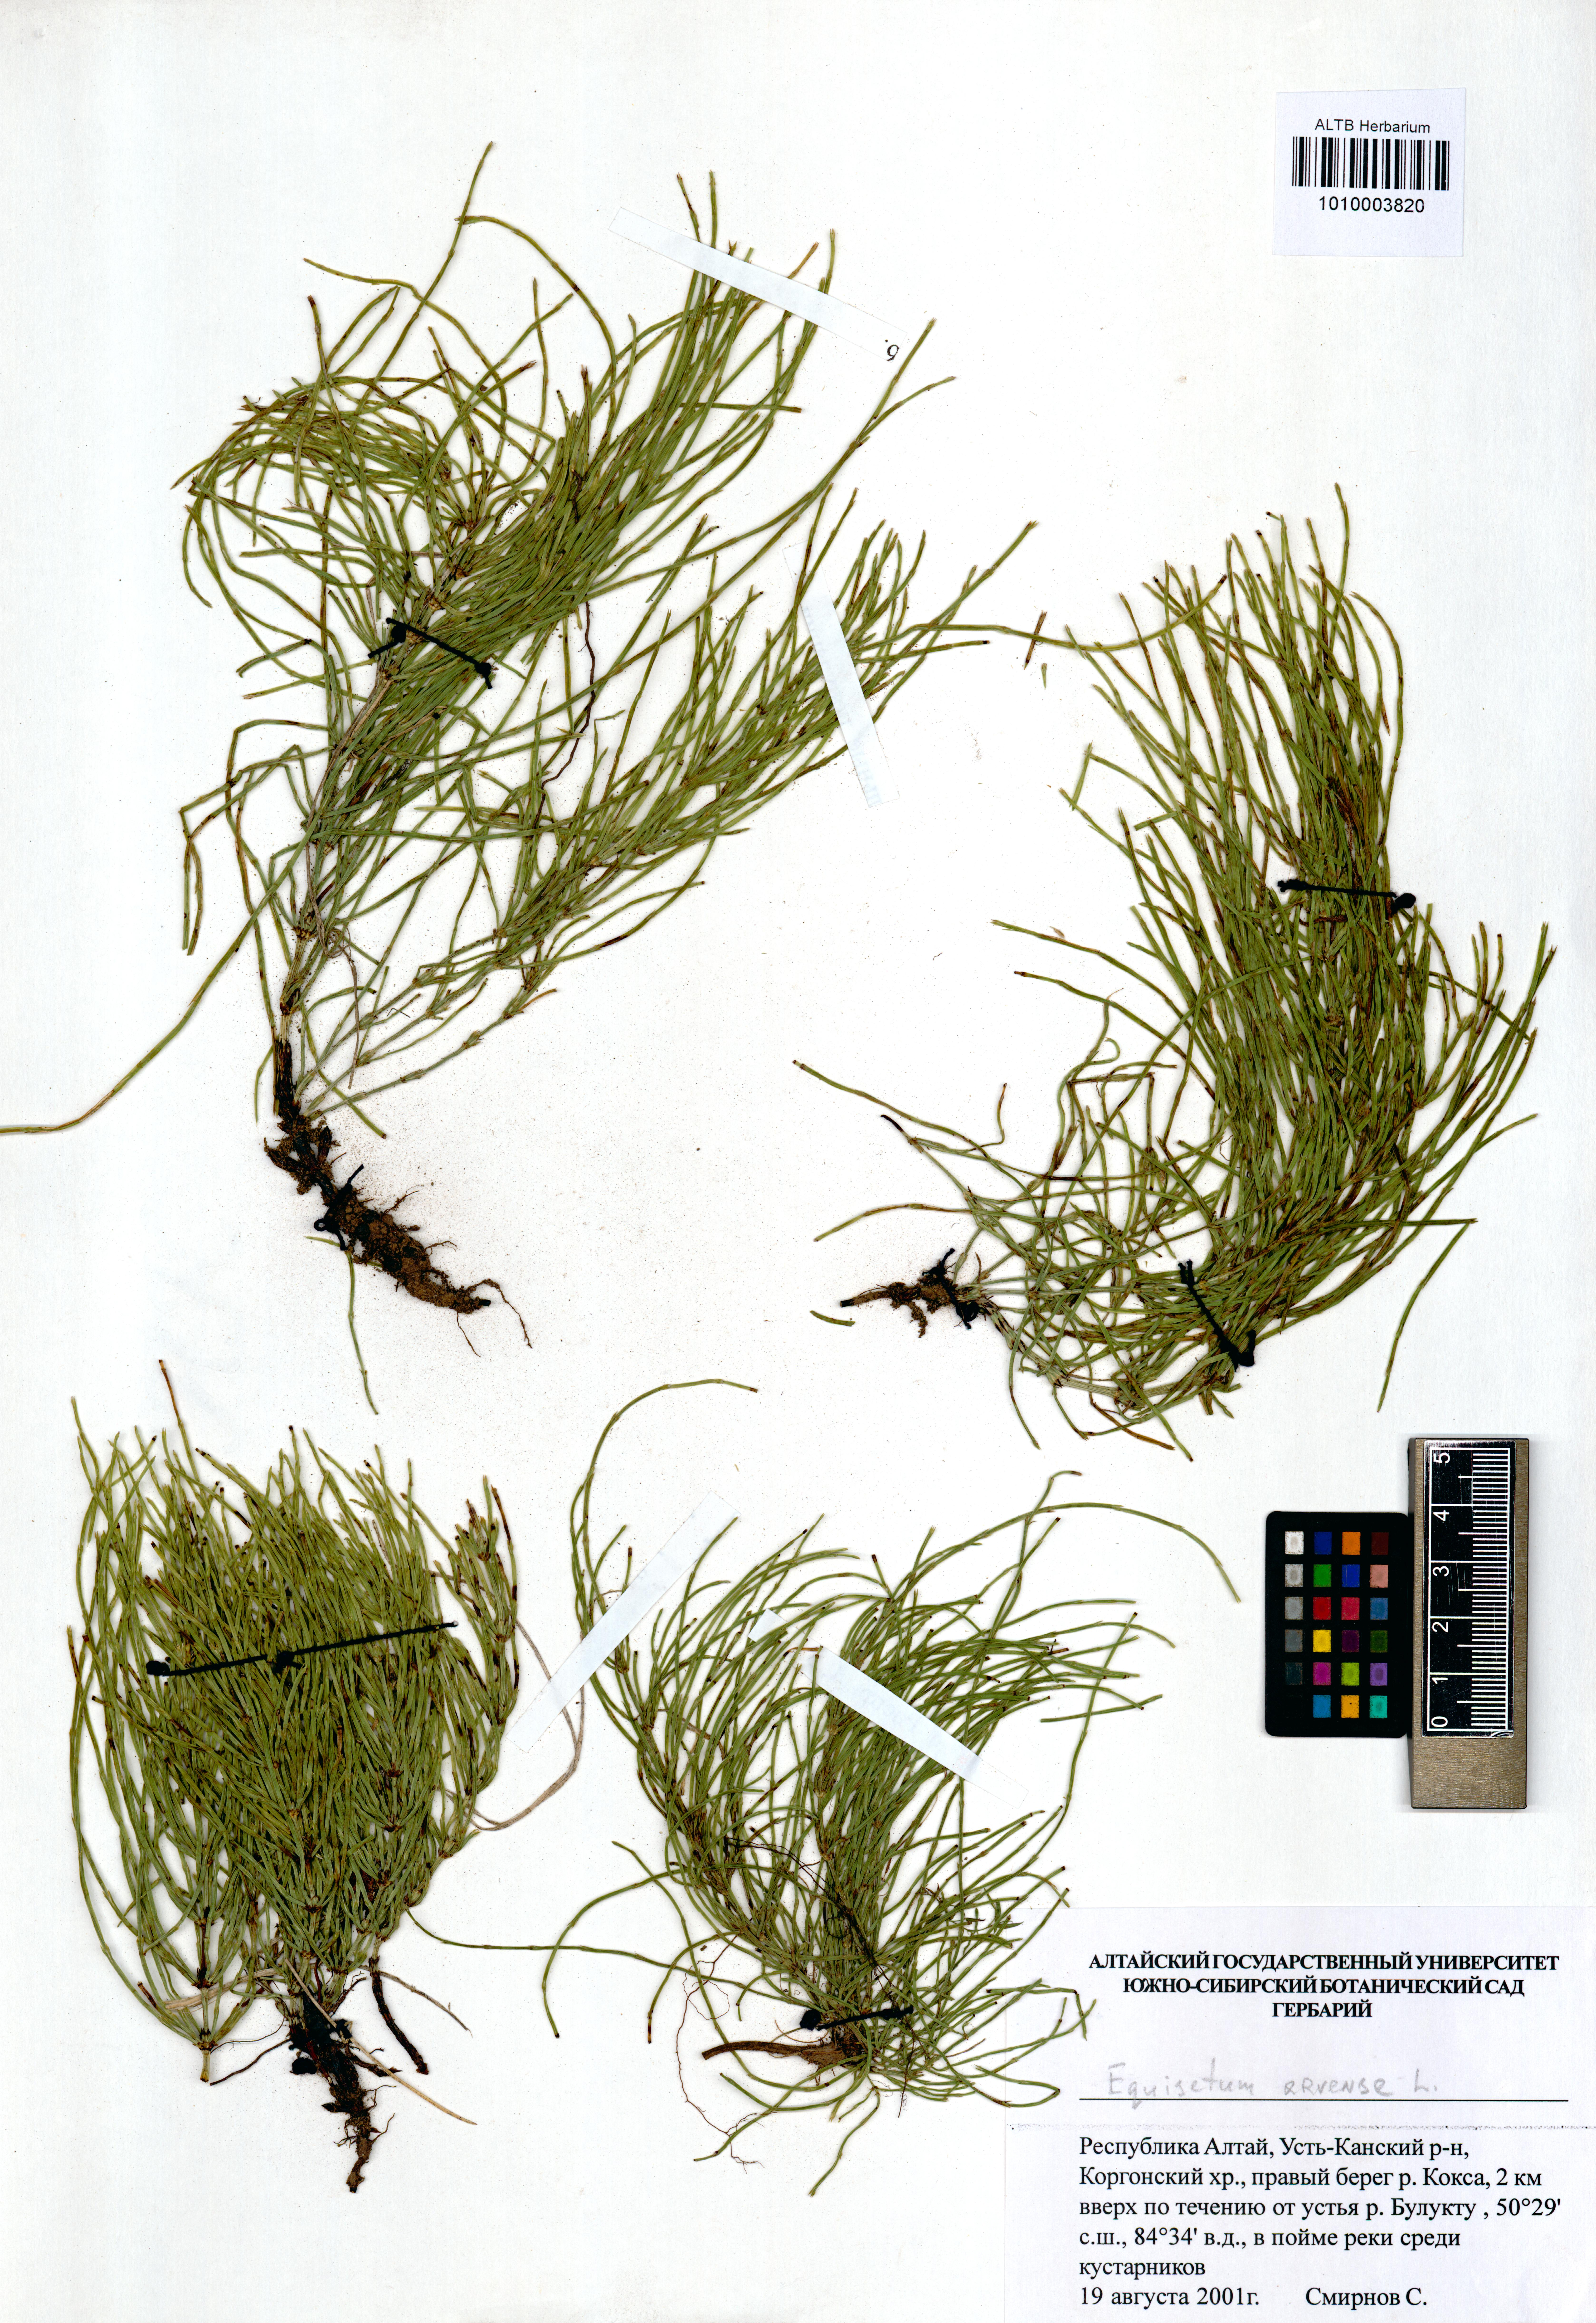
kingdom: Plantae
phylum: Tracheophyta
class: Polypodiopsida
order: Equisetales
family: Equisetaceae
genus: Equisetum
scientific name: Equisetum arvense
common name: Field horsetail
